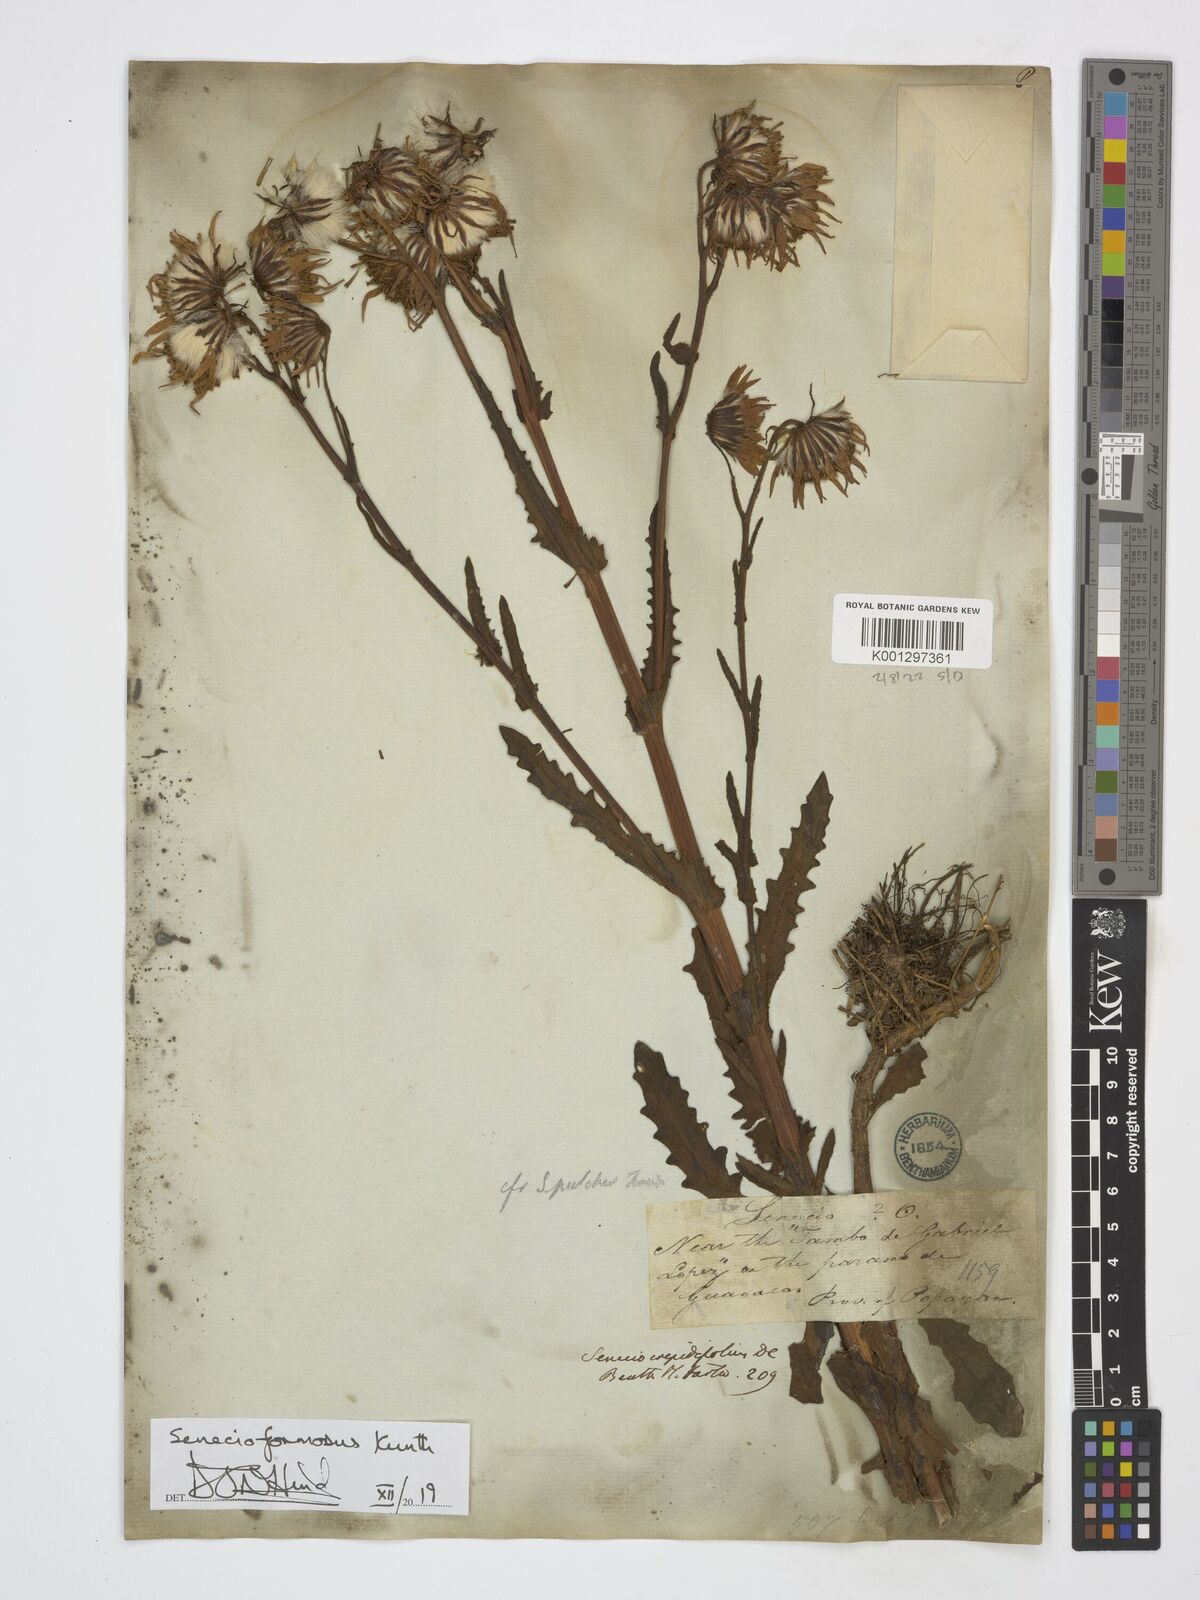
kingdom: Plantae
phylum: Tracheophyta
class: Magnoliopsida
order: Asterales
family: Asteraceae
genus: Senecio
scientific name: Senecio formosus
